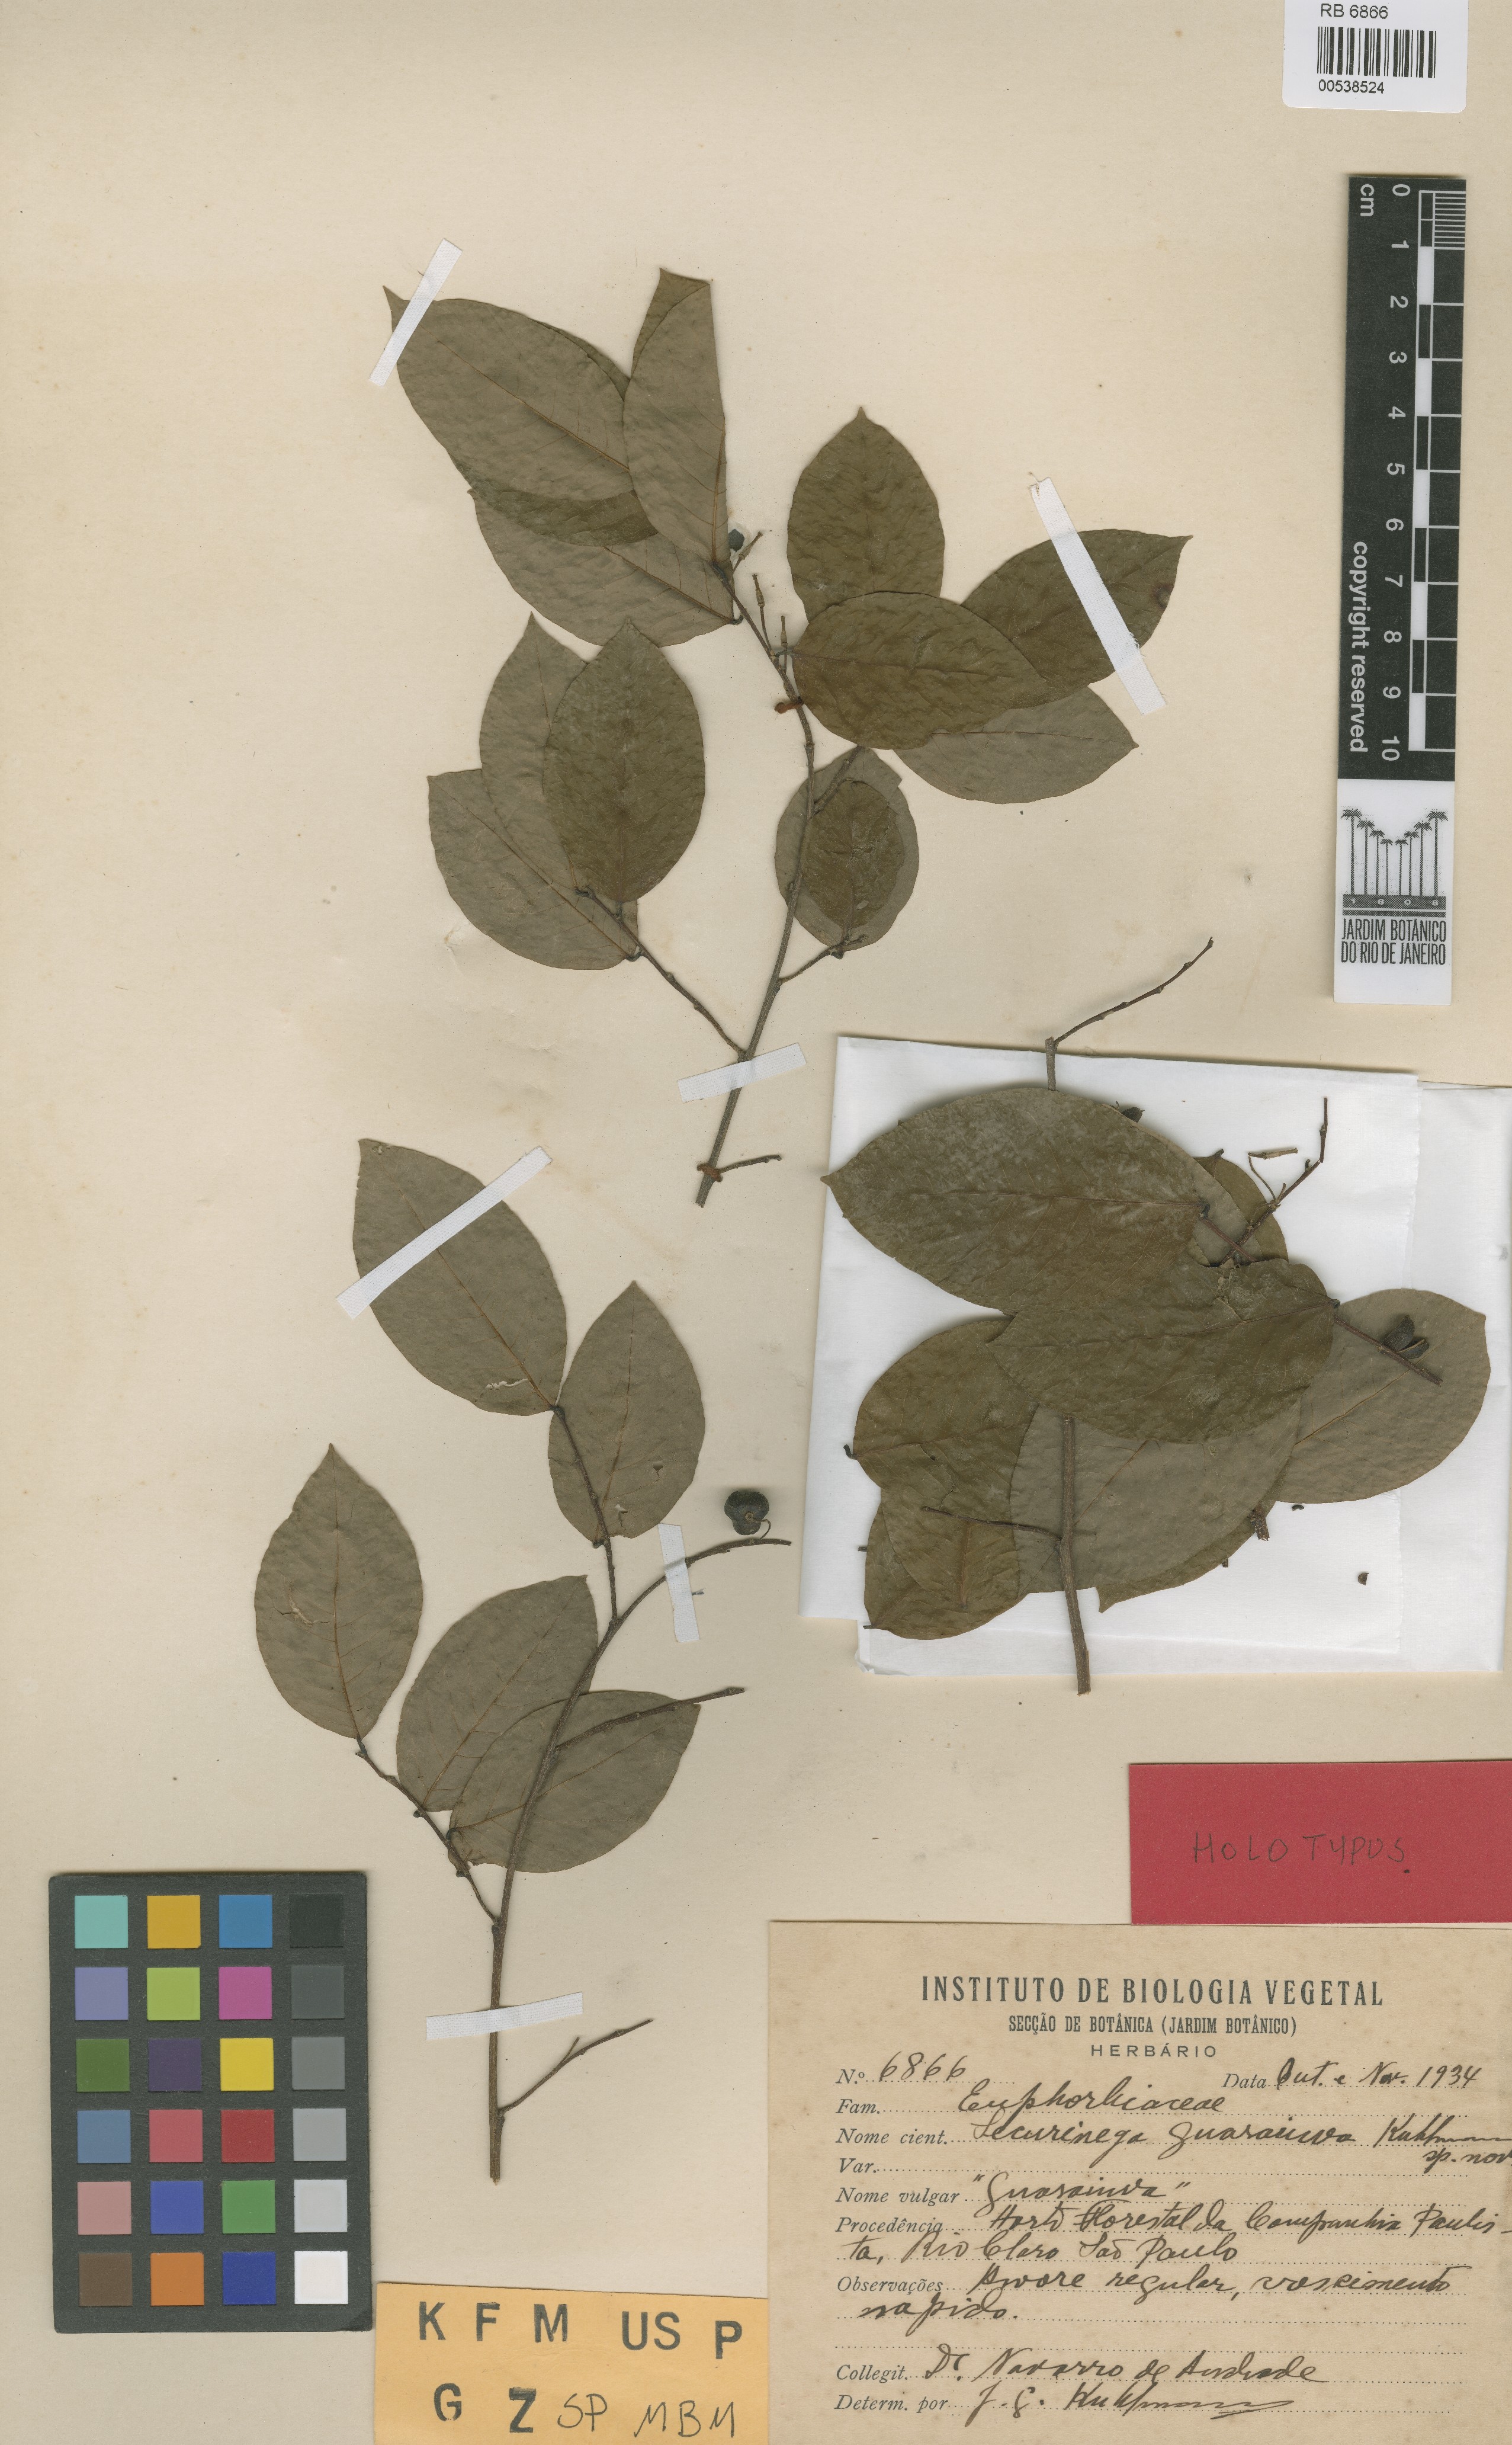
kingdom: Plantae
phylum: Tracheophyta
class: Magnoliopsida
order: Malpighiales
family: Phyllanthaceae
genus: Savia
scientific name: Savia dictyocarpa
